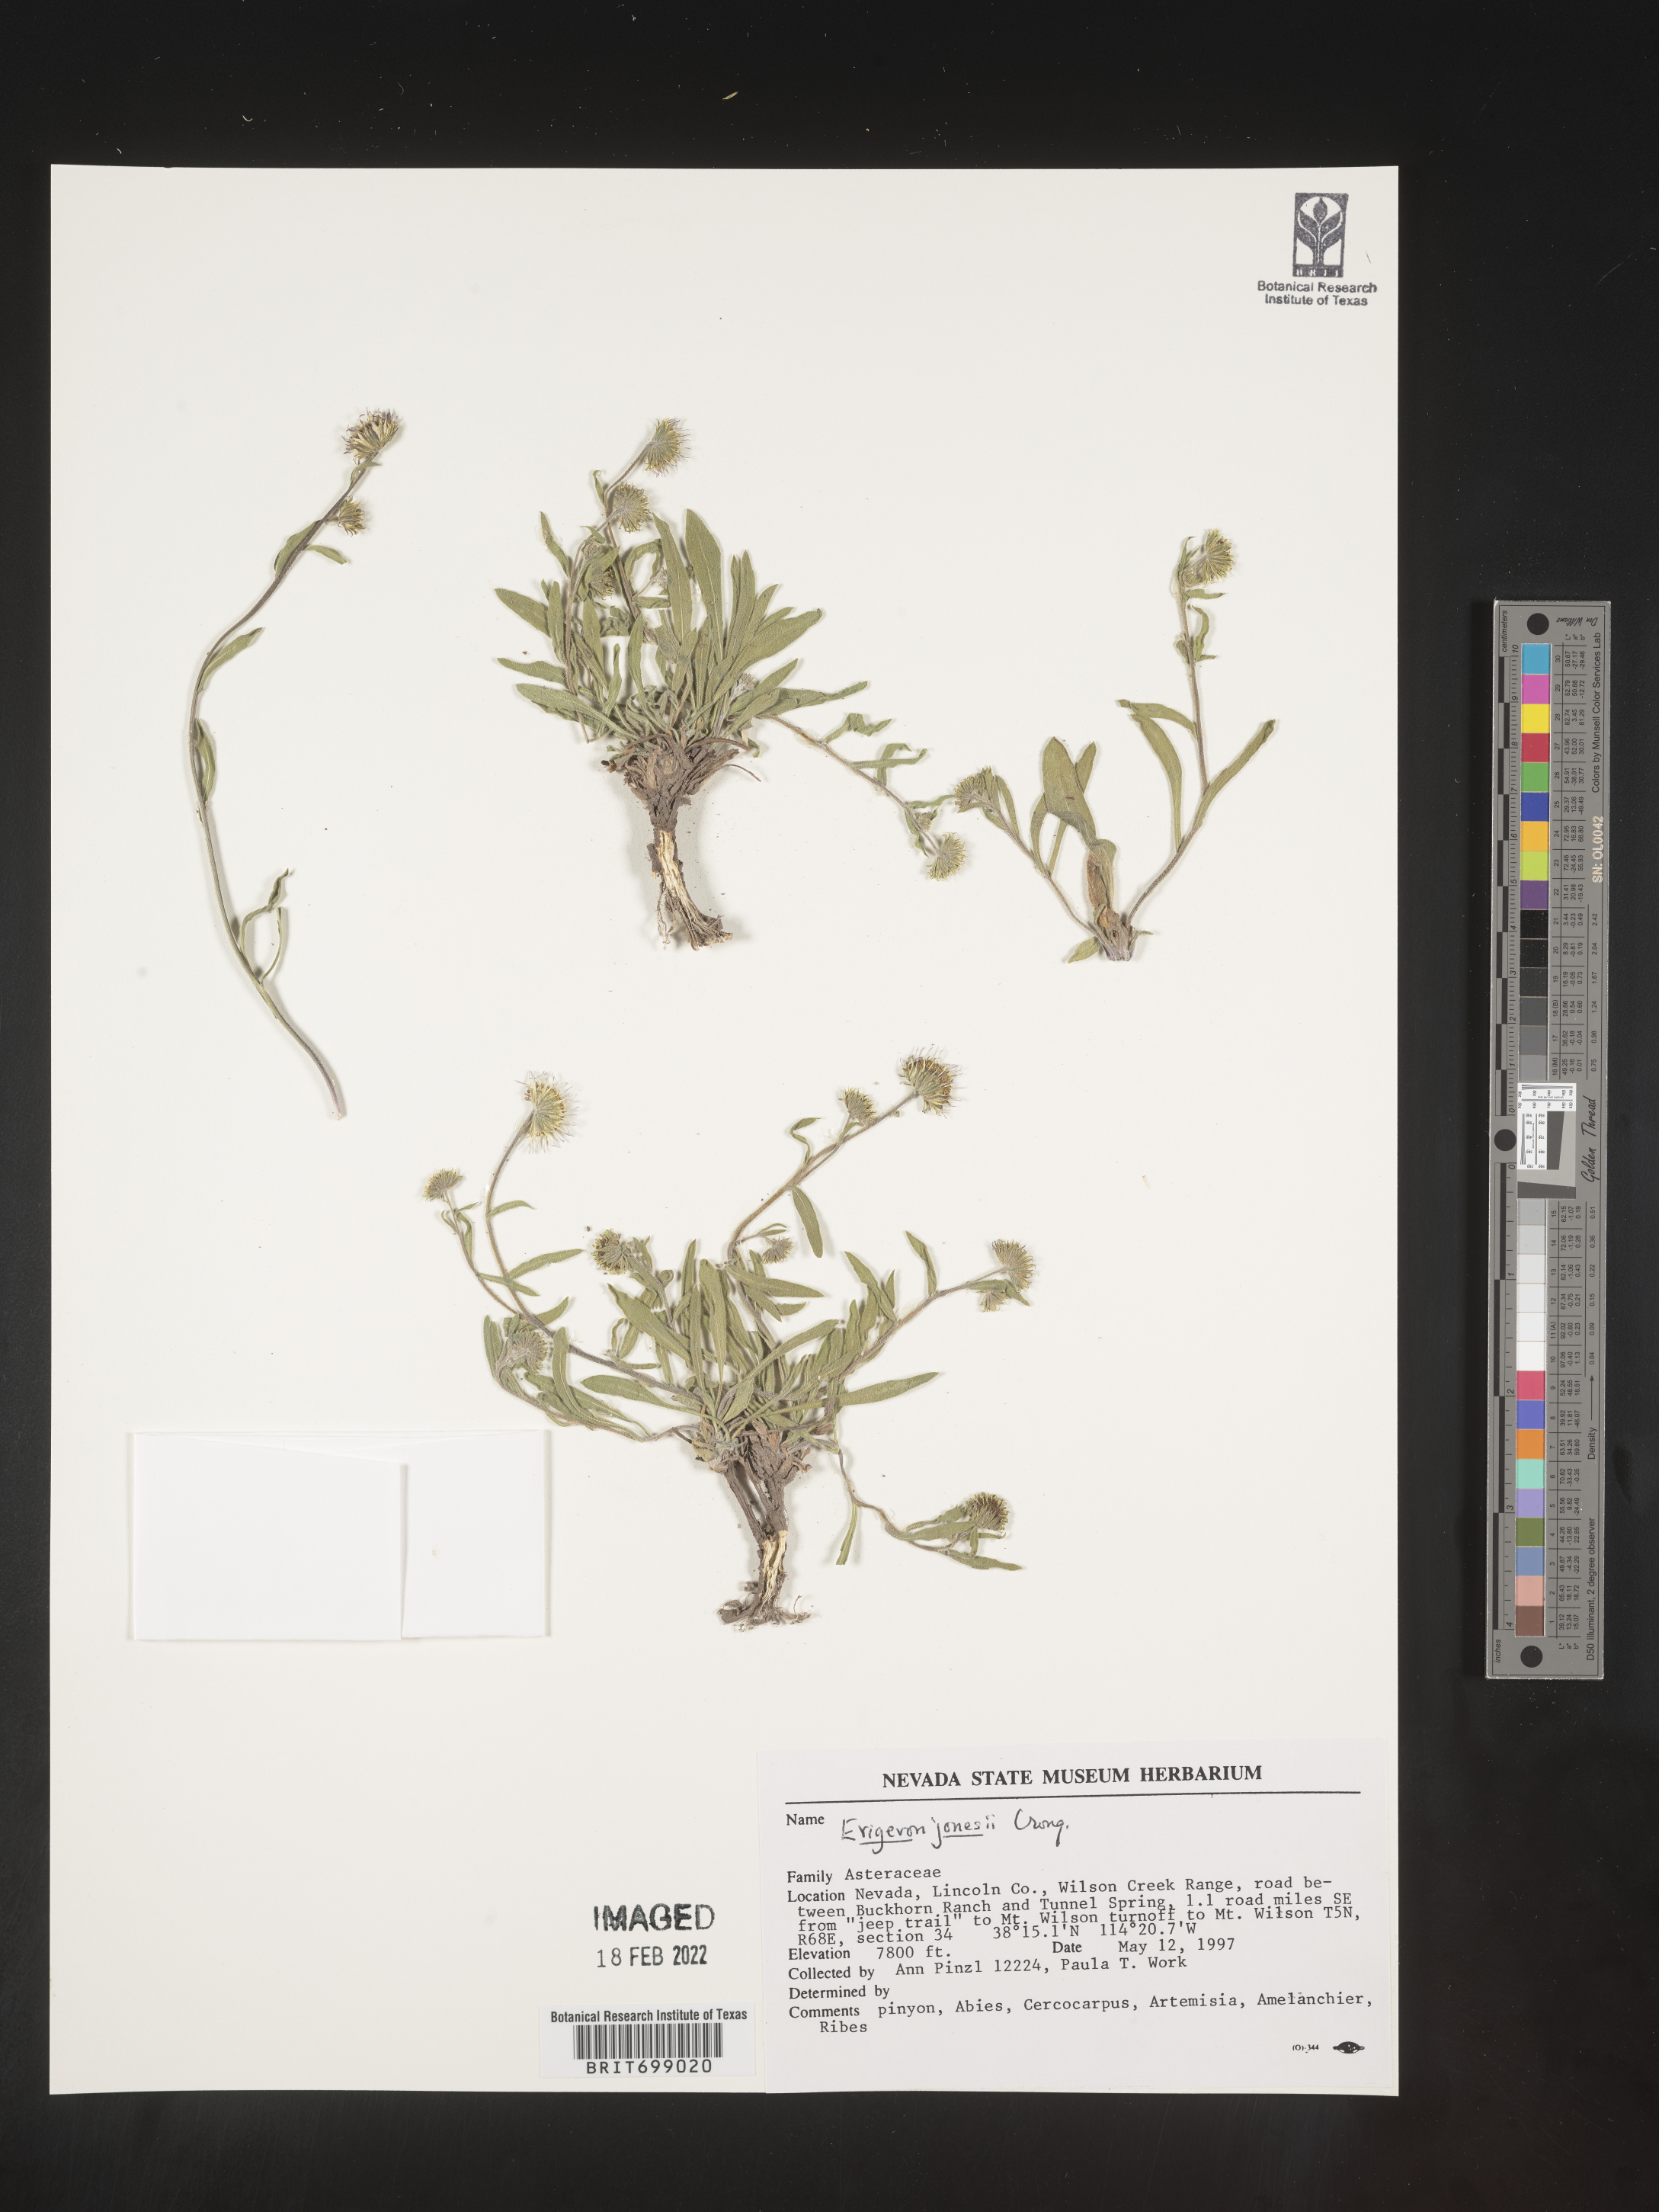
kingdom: Plantae
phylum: Tracheophyta
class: Magnoliopsida
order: Asterales
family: Asteraceae
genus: Erigeron
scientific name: Erigeron jonesii
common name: Jones's fleabane
